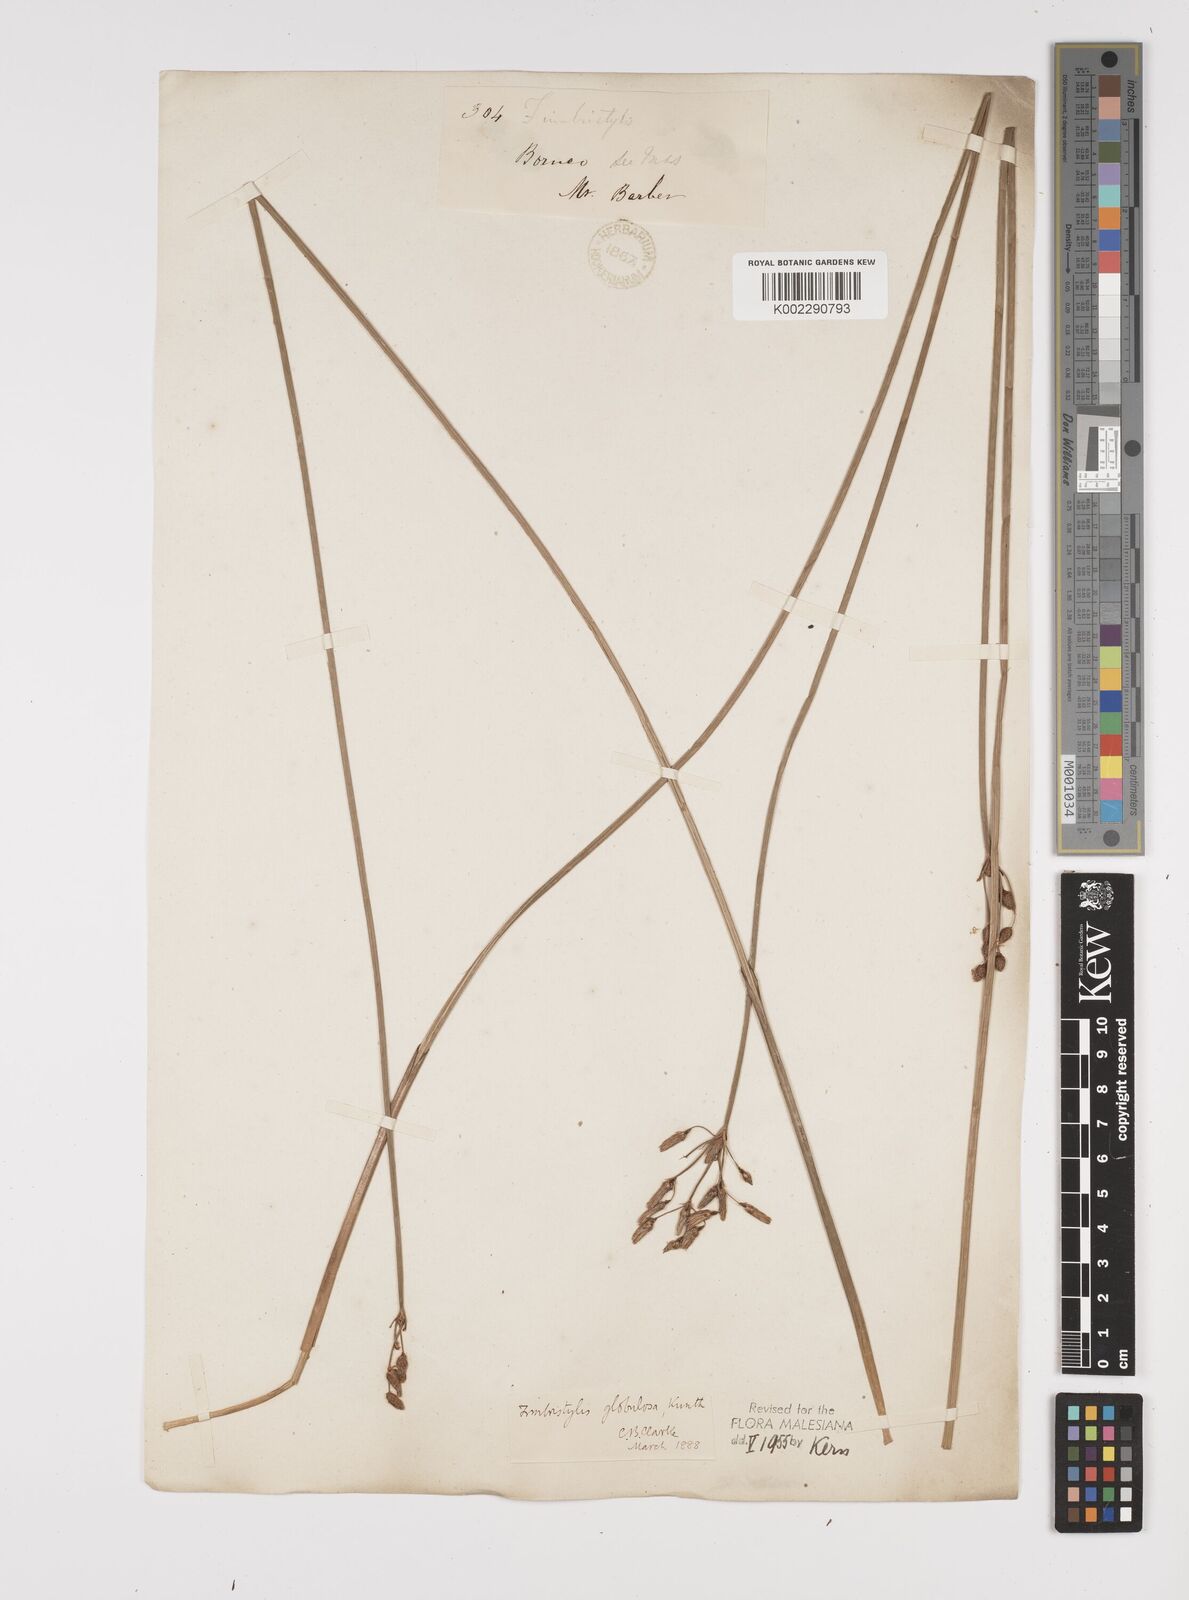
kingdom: Plantae
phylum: Tracheophyta
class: Liliopsida
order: Poales
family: Cyperaceae
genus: Fimbristylis
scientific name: Fimbristylis umbellaris
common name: Globular fimbristylis
